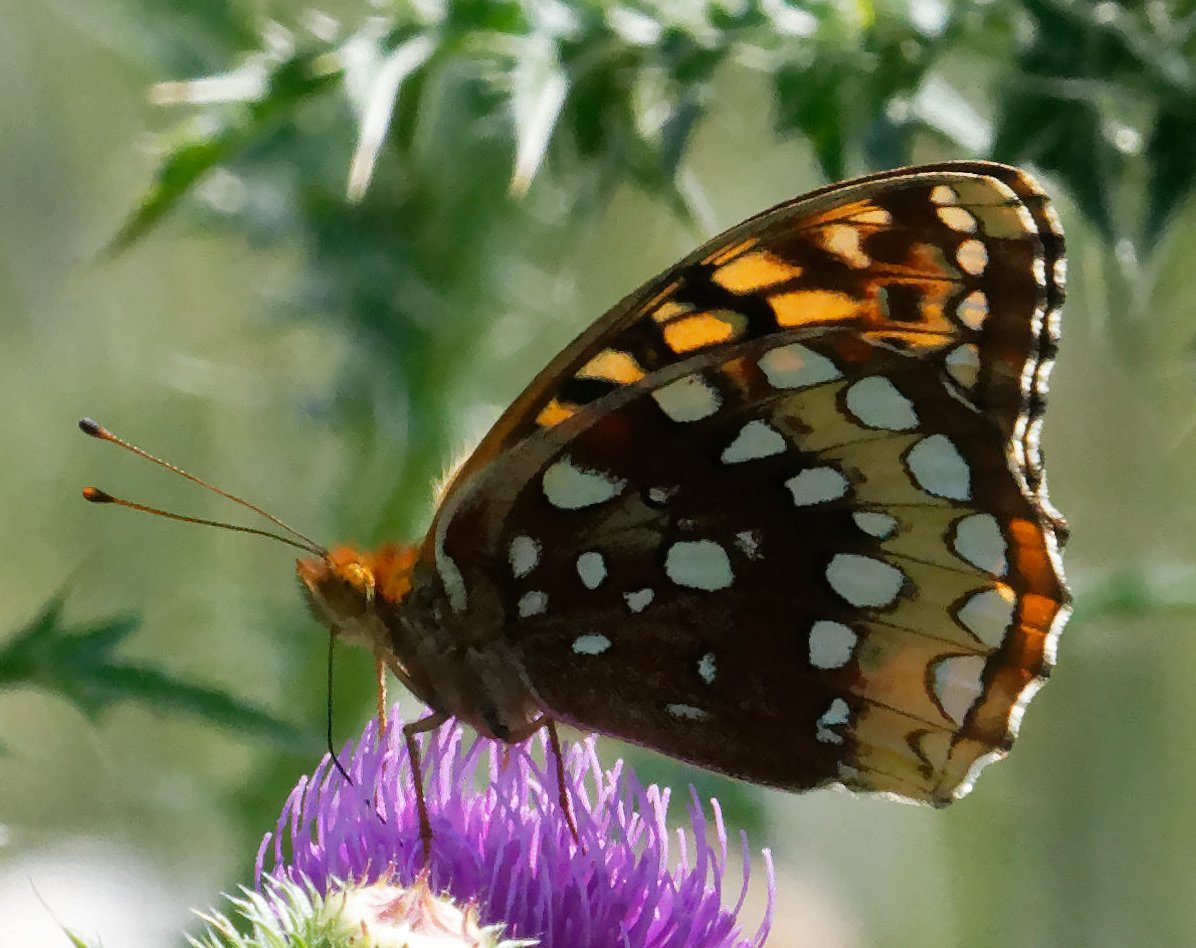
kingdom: Animalia
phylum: Arthropoda
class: Insecta
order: Lepidoptera
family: Nymphalidae
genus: Speyeria
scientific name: Speyeria cybele
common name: Great Spangled Fritillary
